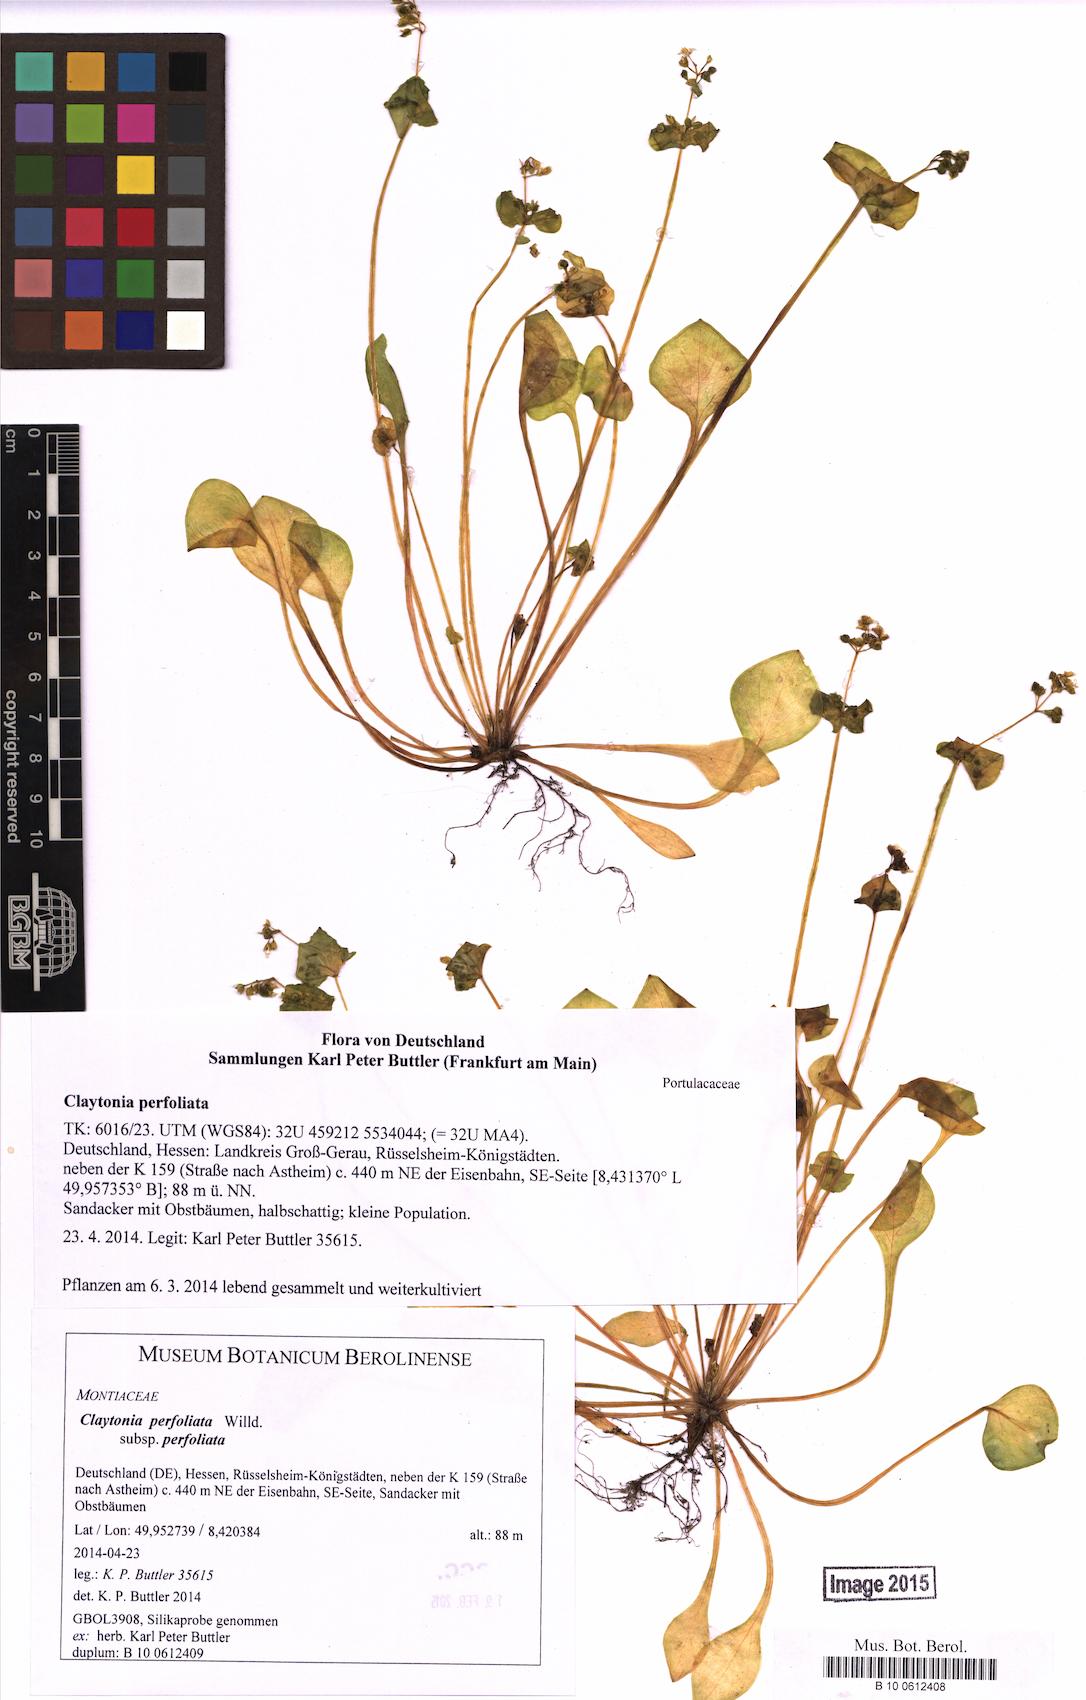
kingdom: Plantae
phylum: Tracheophyta
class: Magnoliopsida
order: Caryophyllales
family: Montiaceae
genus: Claytonia
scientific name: Claytonia perfoliata
